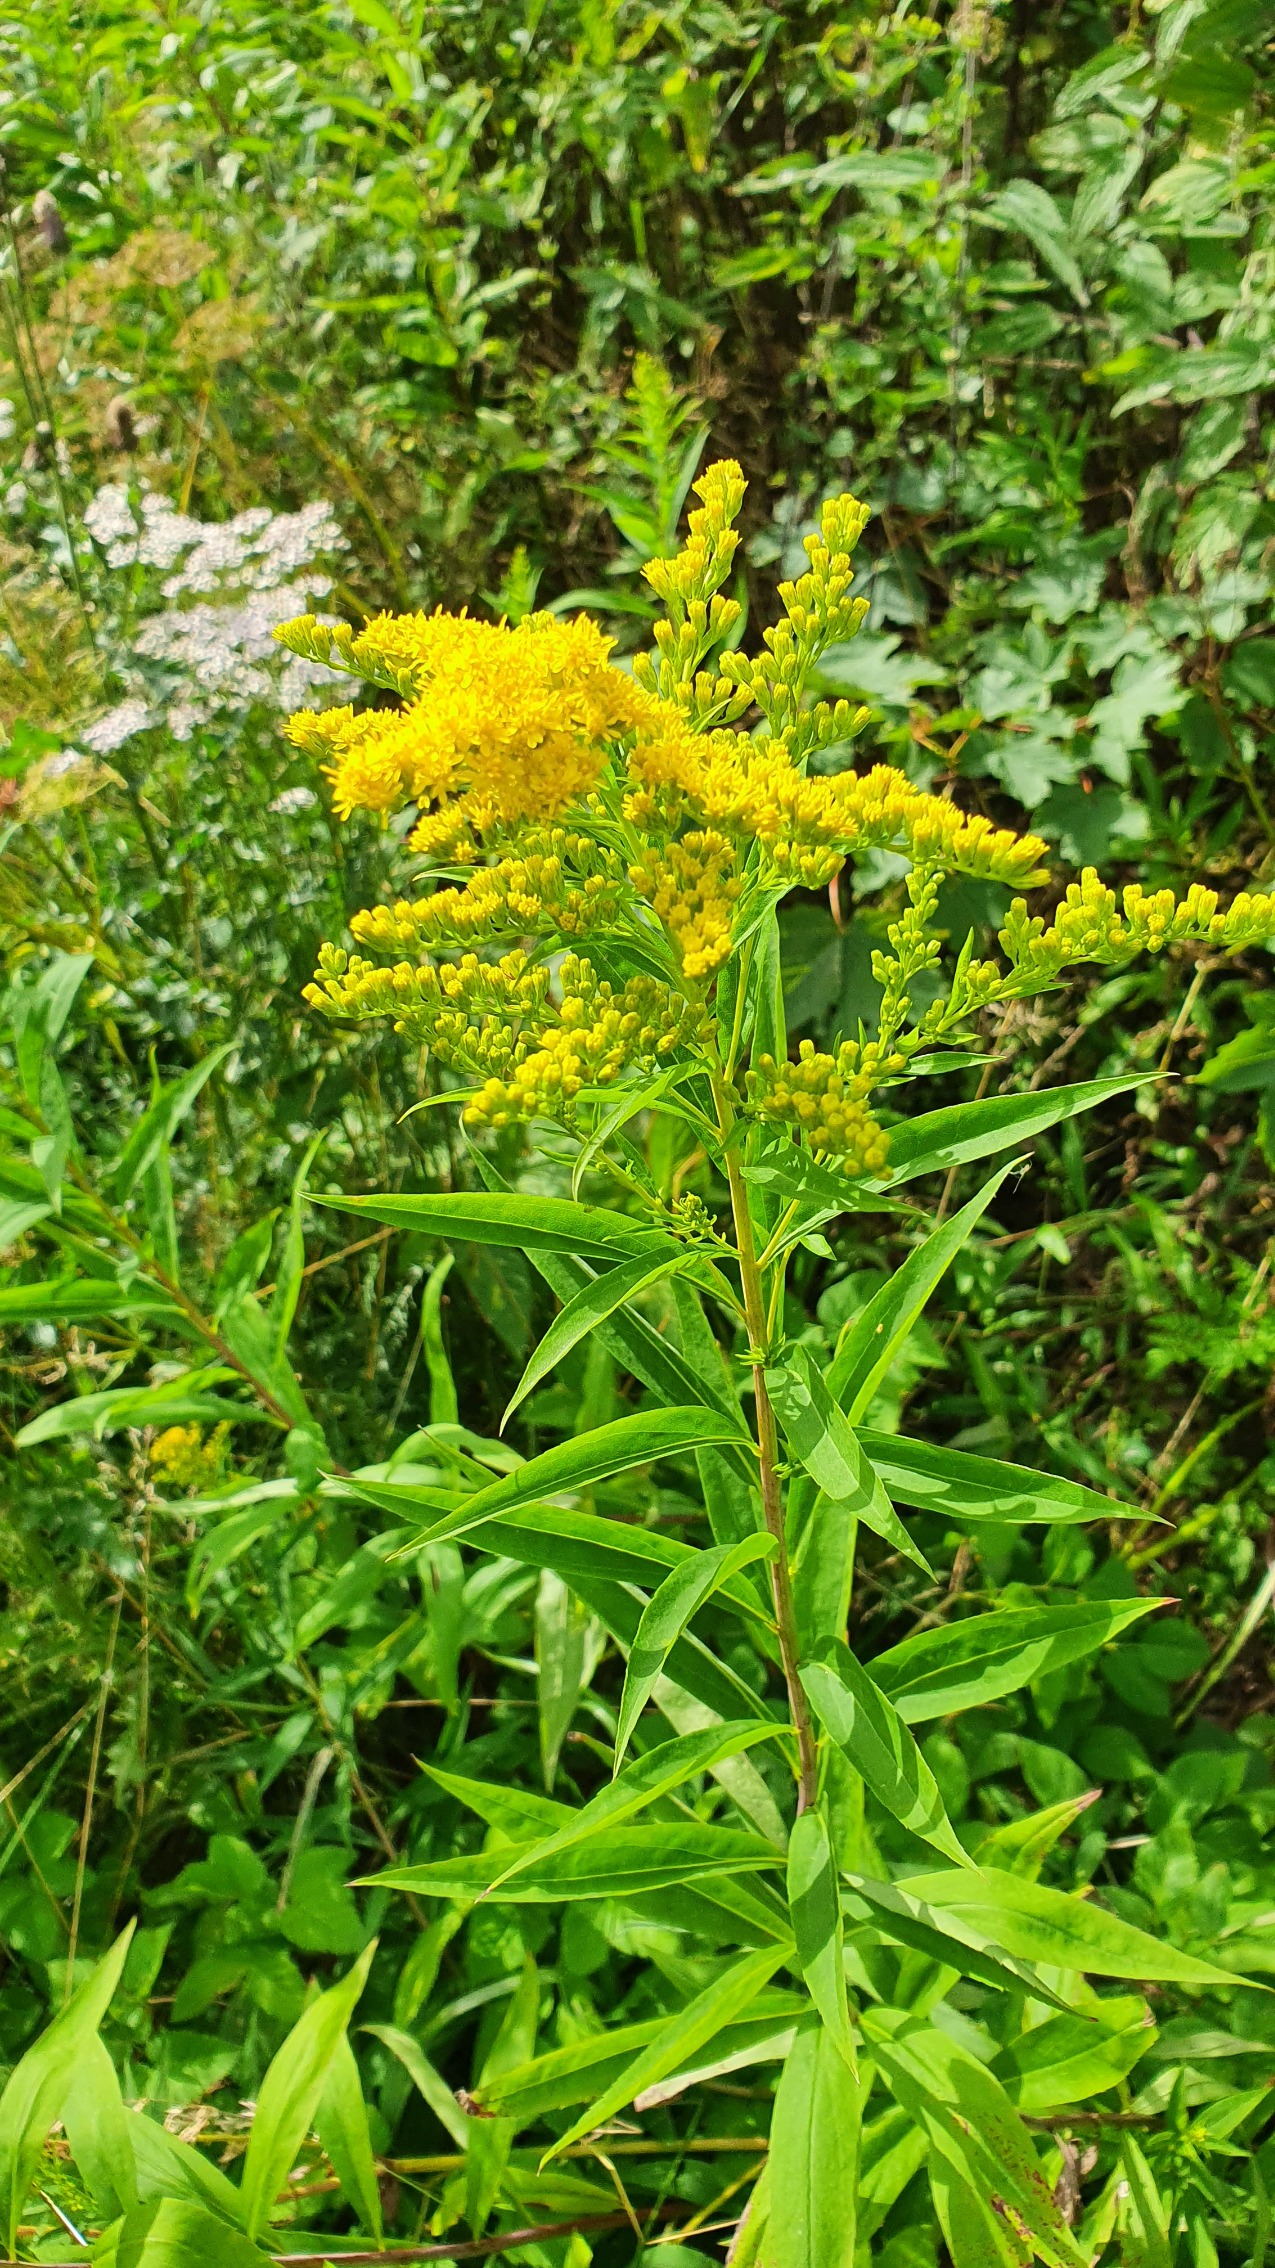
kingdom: Plantae
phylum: Tracheophyta
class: Magnoliopsida
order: Asterales
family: Asteraceae
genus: Solidago
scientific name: Solidago gigantea
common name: Sildig gyldenris
